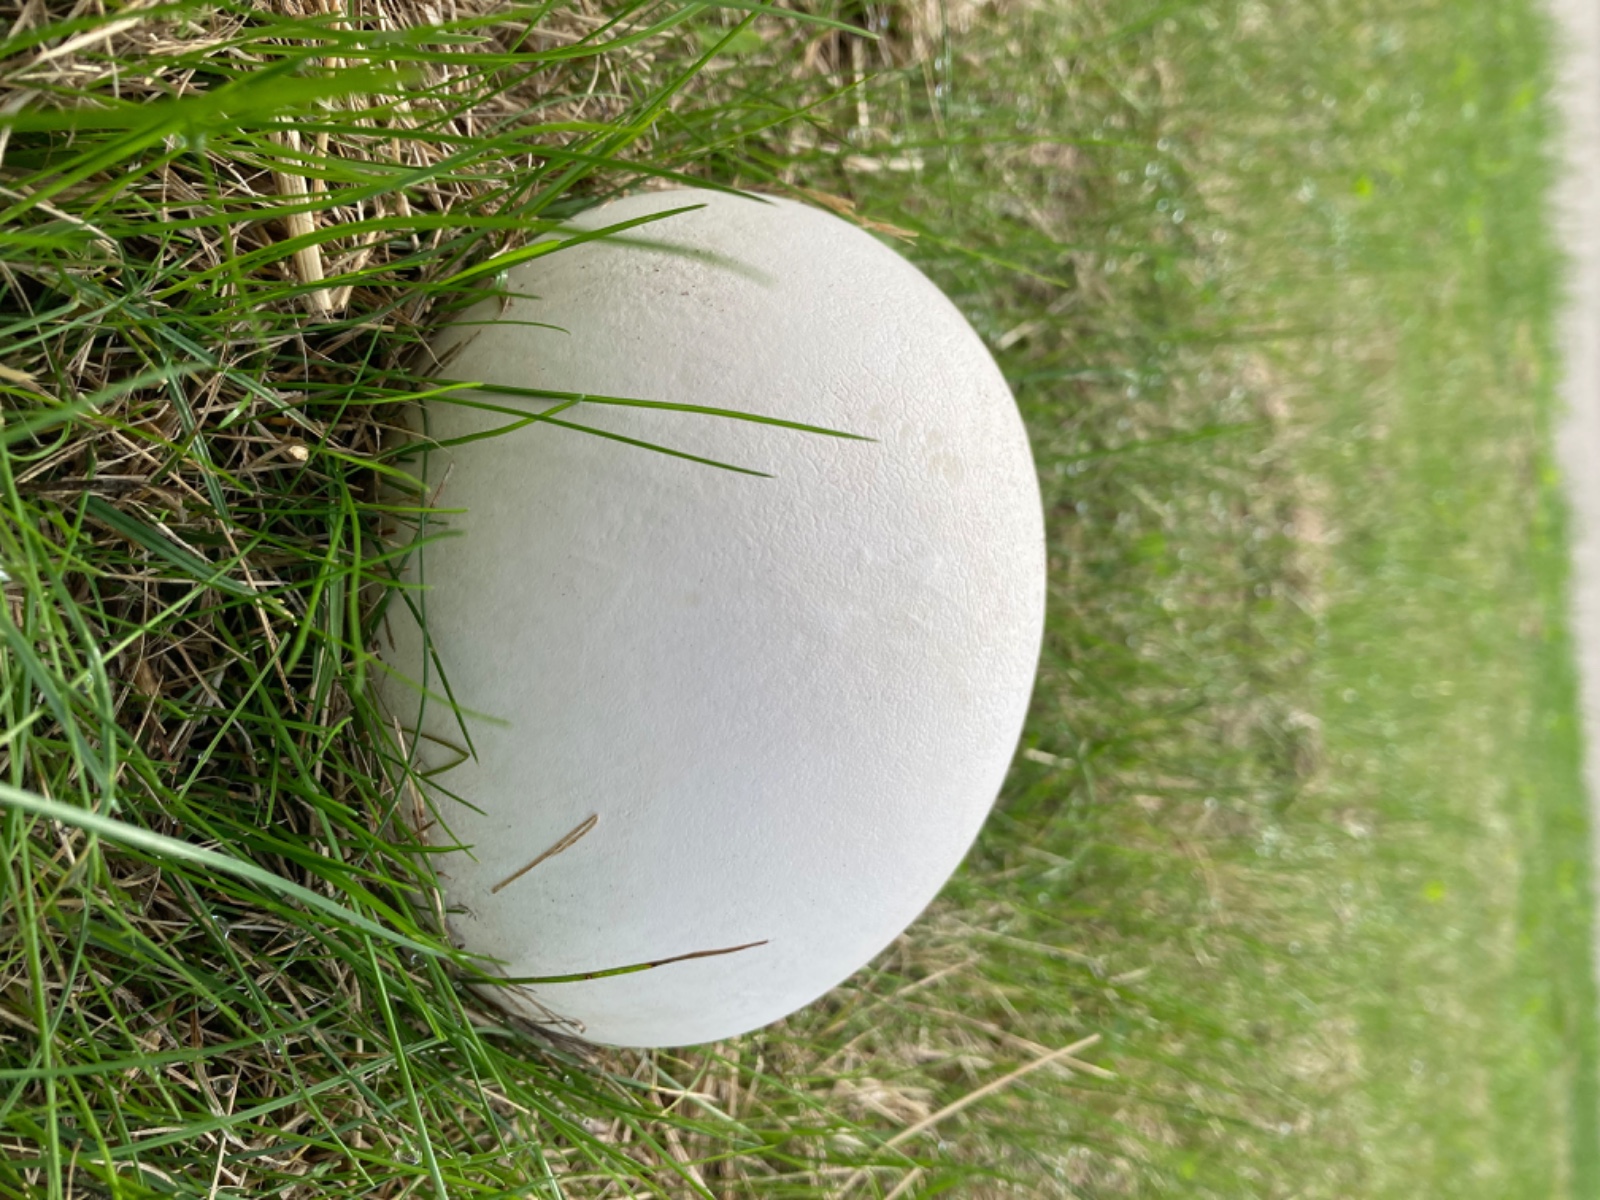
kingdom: Fungi
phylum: Basidiomycota
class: Agaricomycetes
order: Agaricales
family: Lycoperdaceae
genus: Calvatia
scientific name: Calvatia gigantea
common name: kæmpestøvbold
